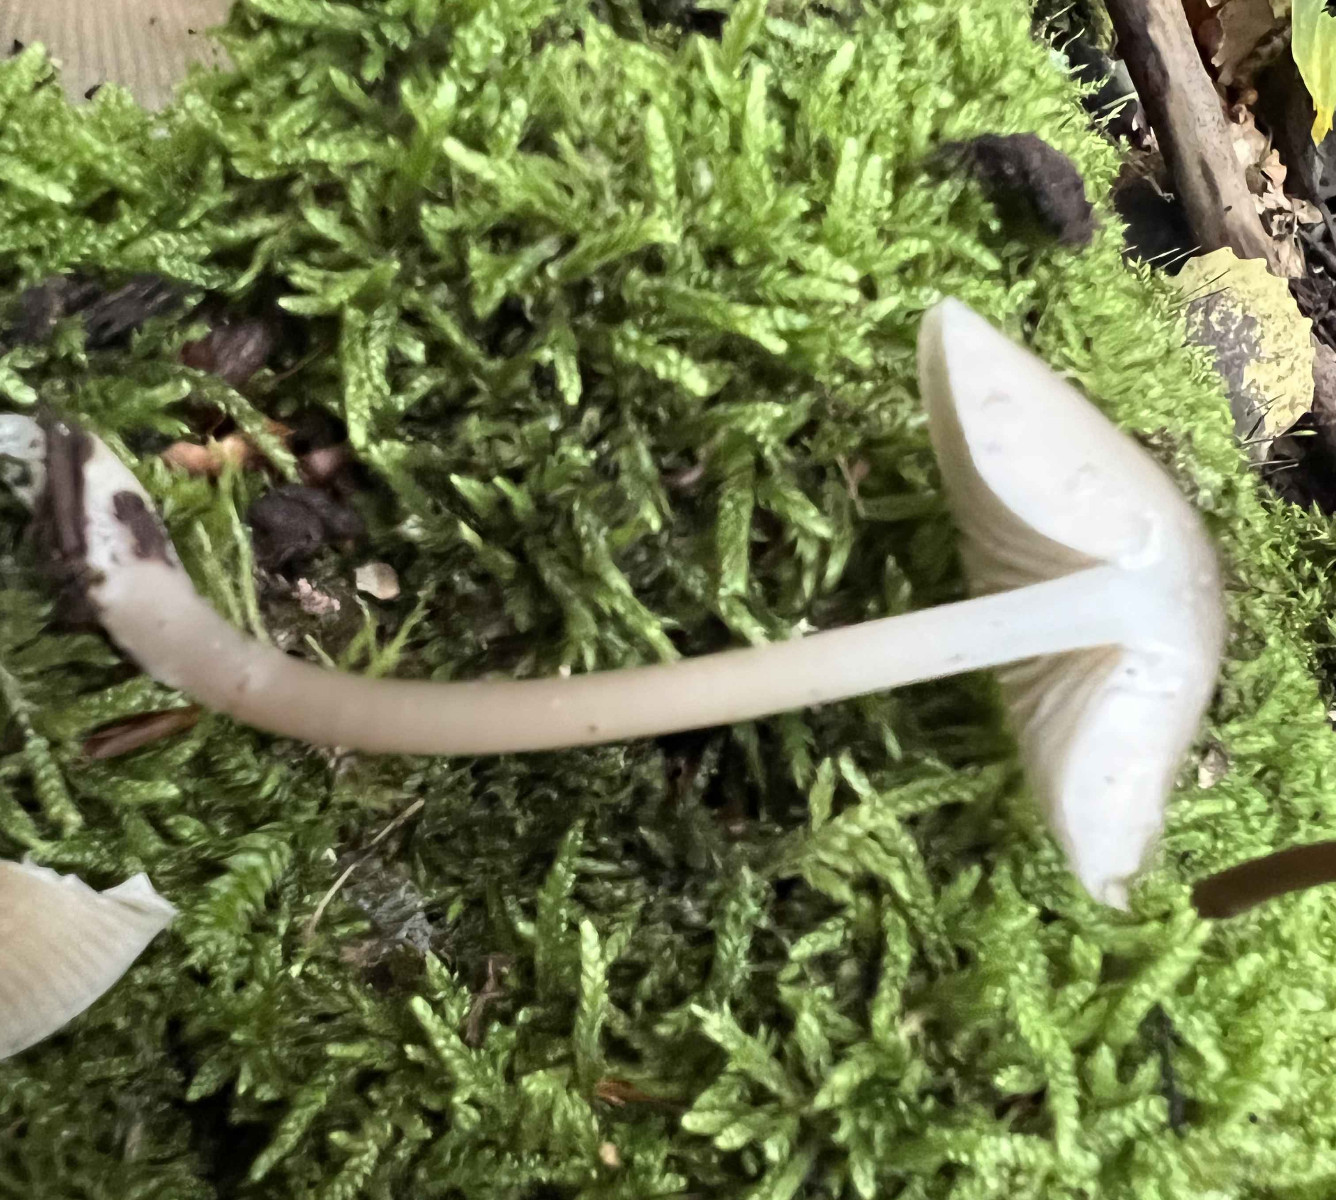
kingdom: Fungi
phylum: Basidiomycota
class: Agaricomycetes
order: Agaricales
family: Mycenaceae
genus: Mycena
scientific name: Mycena galericulata
